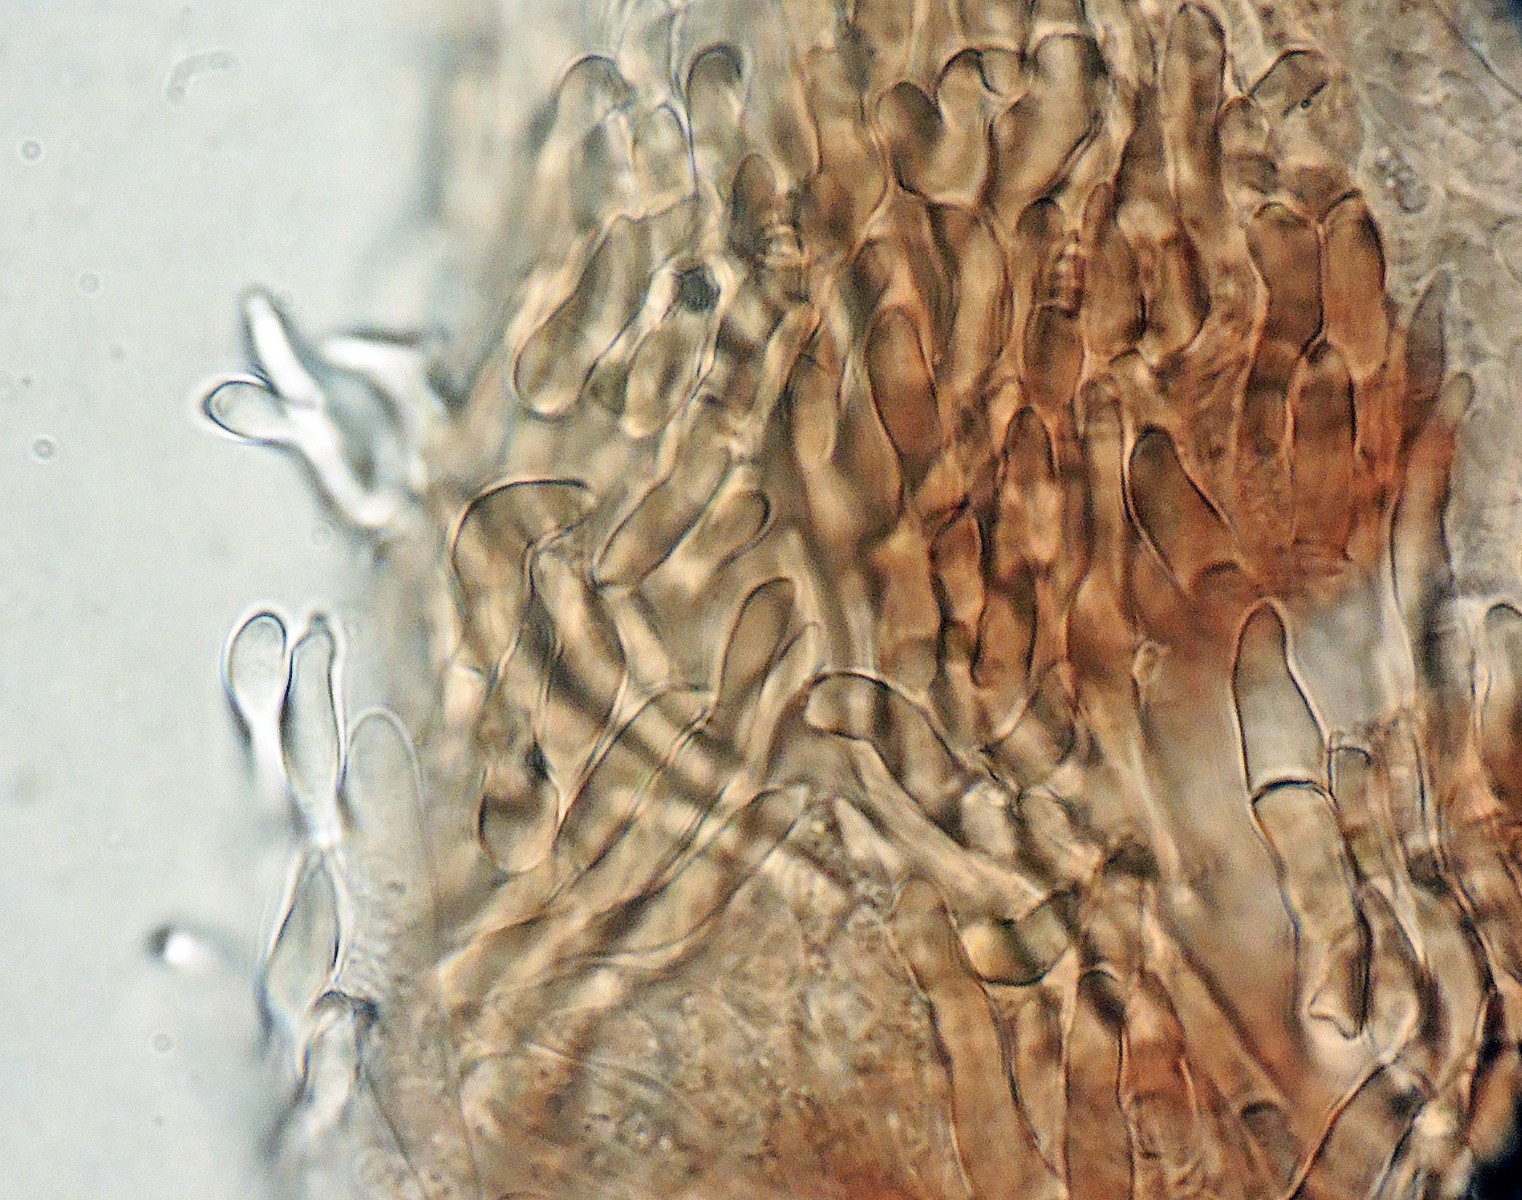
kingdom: Fungi
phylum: Ascomycota
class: Leotiomycetes
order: Helotiales
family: Hyaloscyphaceae
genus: Hyalopeziza
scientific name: Hyalopeziza millepunctata
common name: almindelig kugleskive
